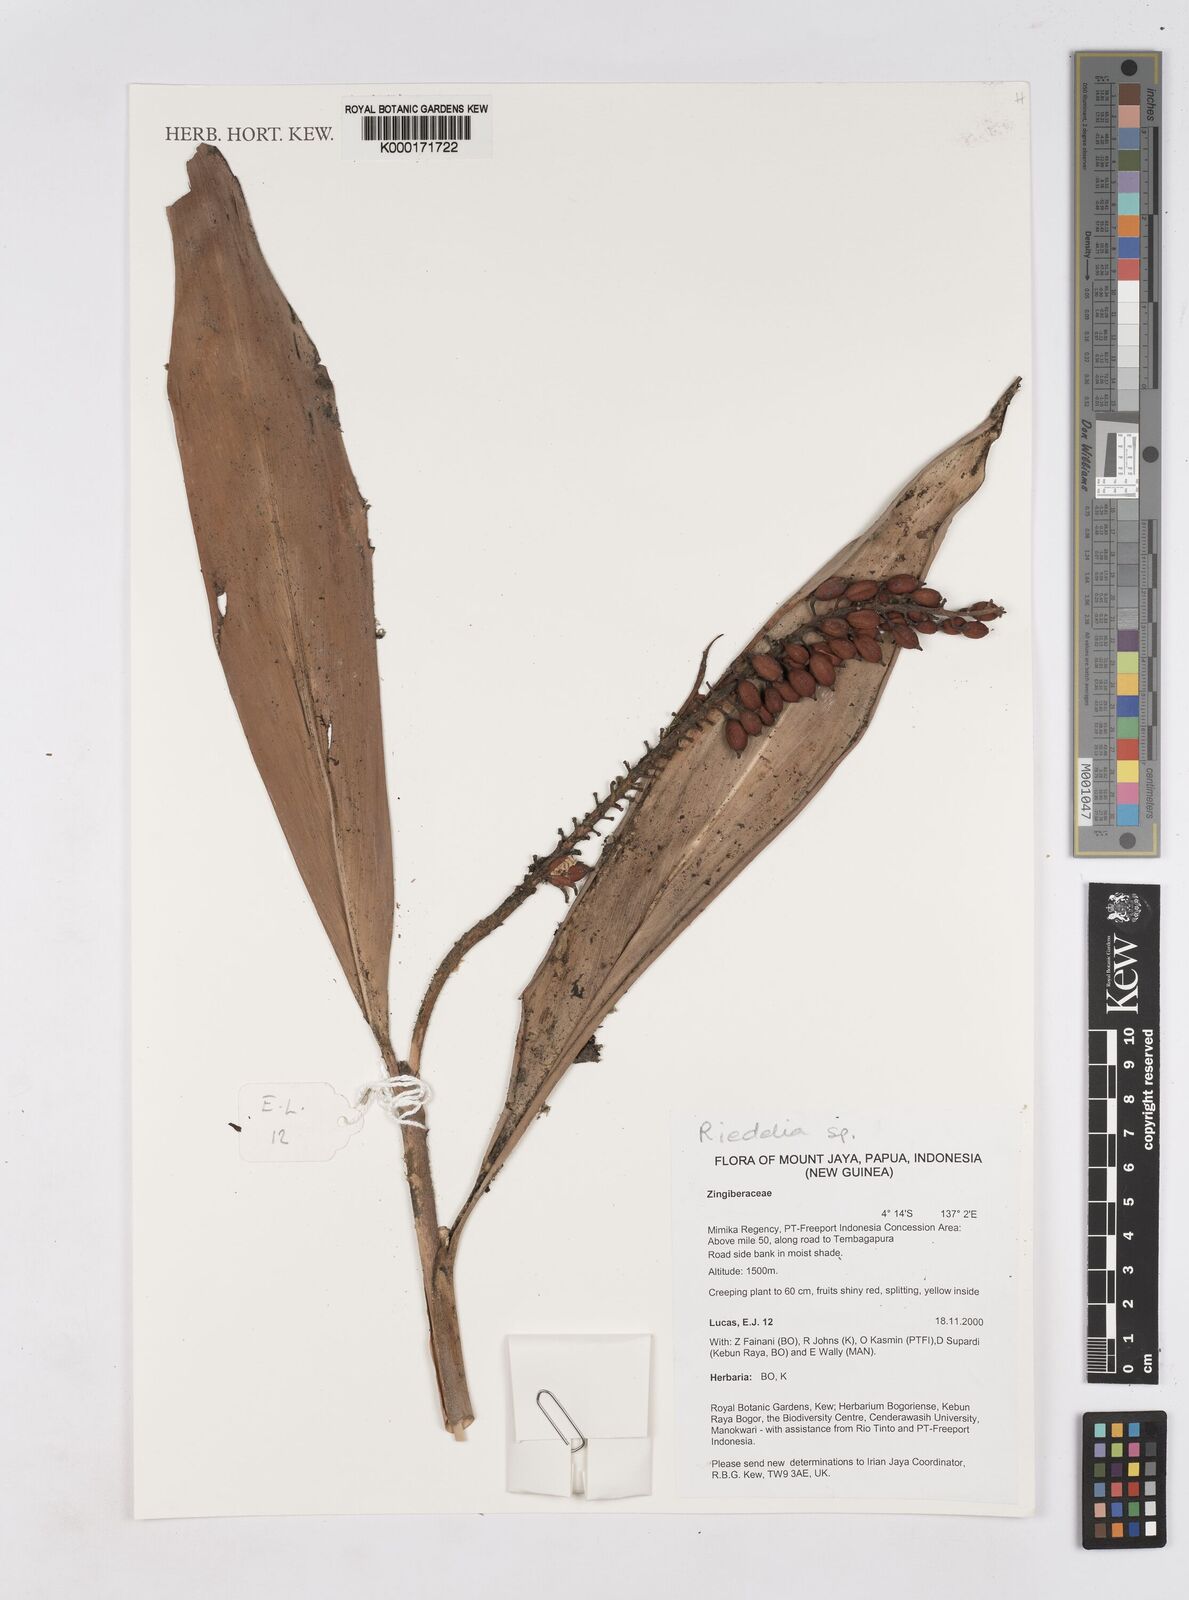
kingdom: Plantae
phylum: Tracheophyta
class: Liliopsida
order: Zingiberales
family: Zingiberaceae
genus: Riedelia
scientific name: Riedelia
